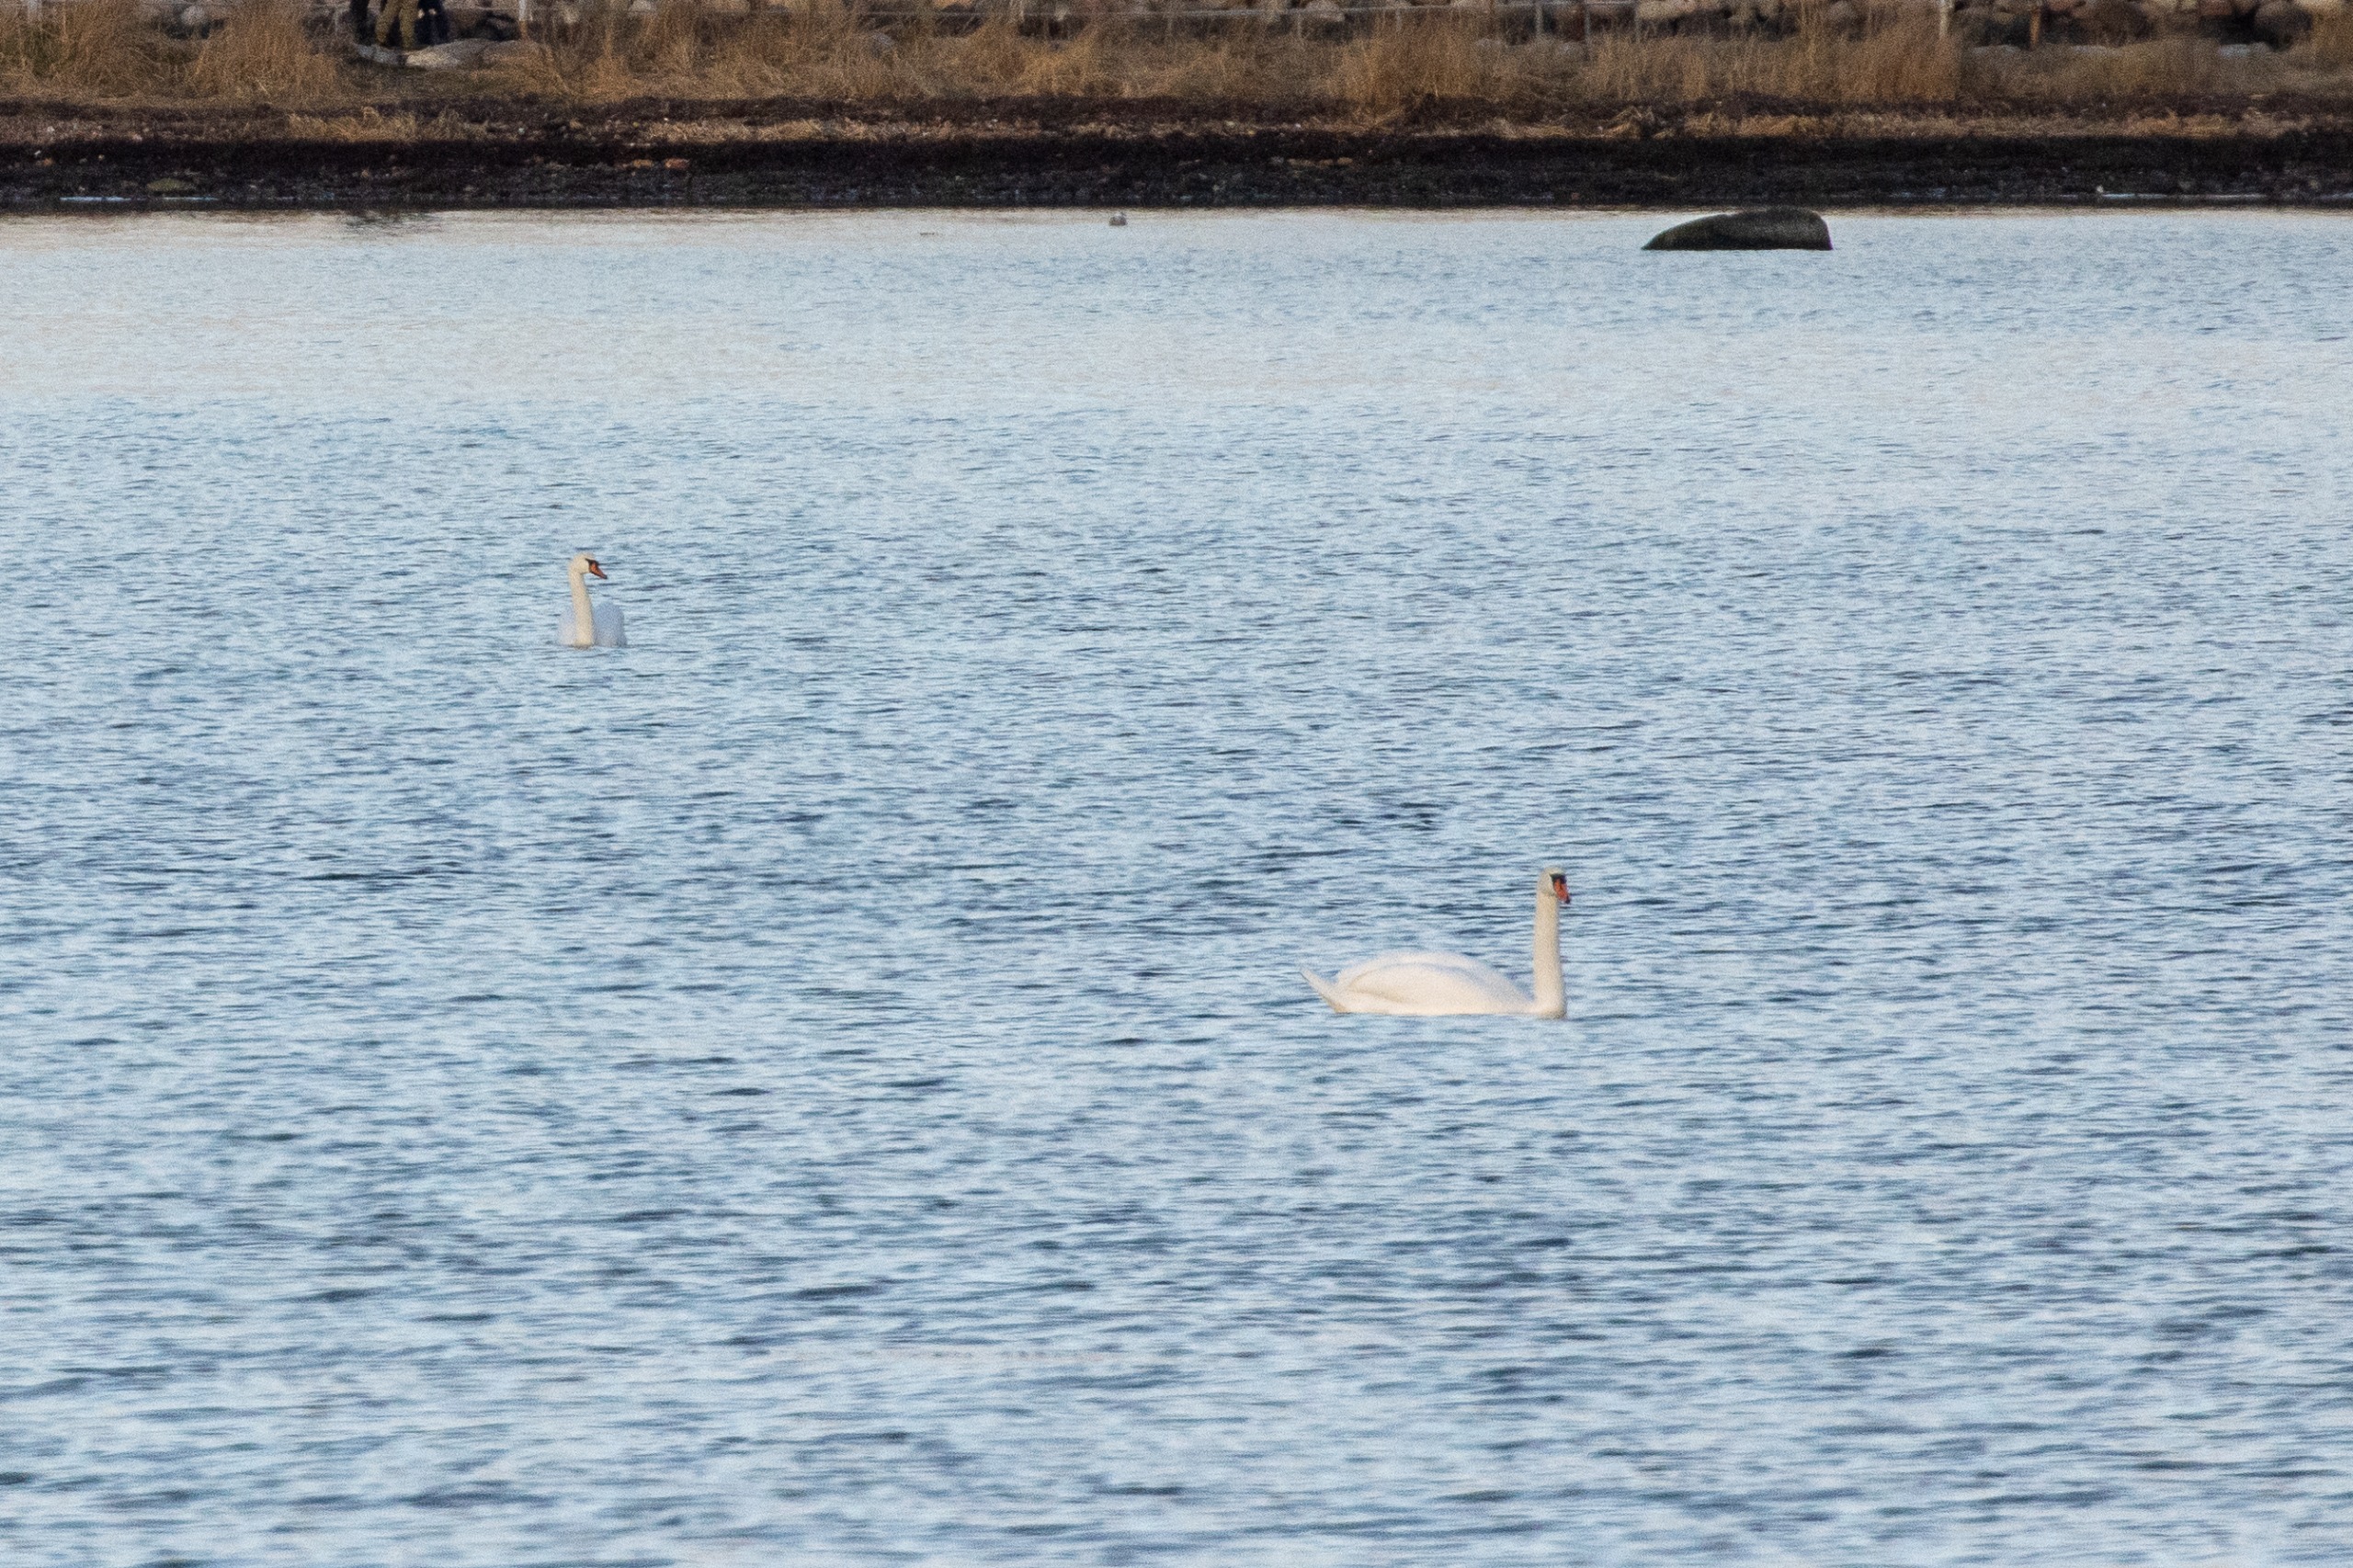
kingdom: Animalia
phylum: Chordata
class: Aves
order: Anseriformes
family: Anatidae
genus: Cygnus
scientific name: Cygnus olor
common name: Knopsvane
